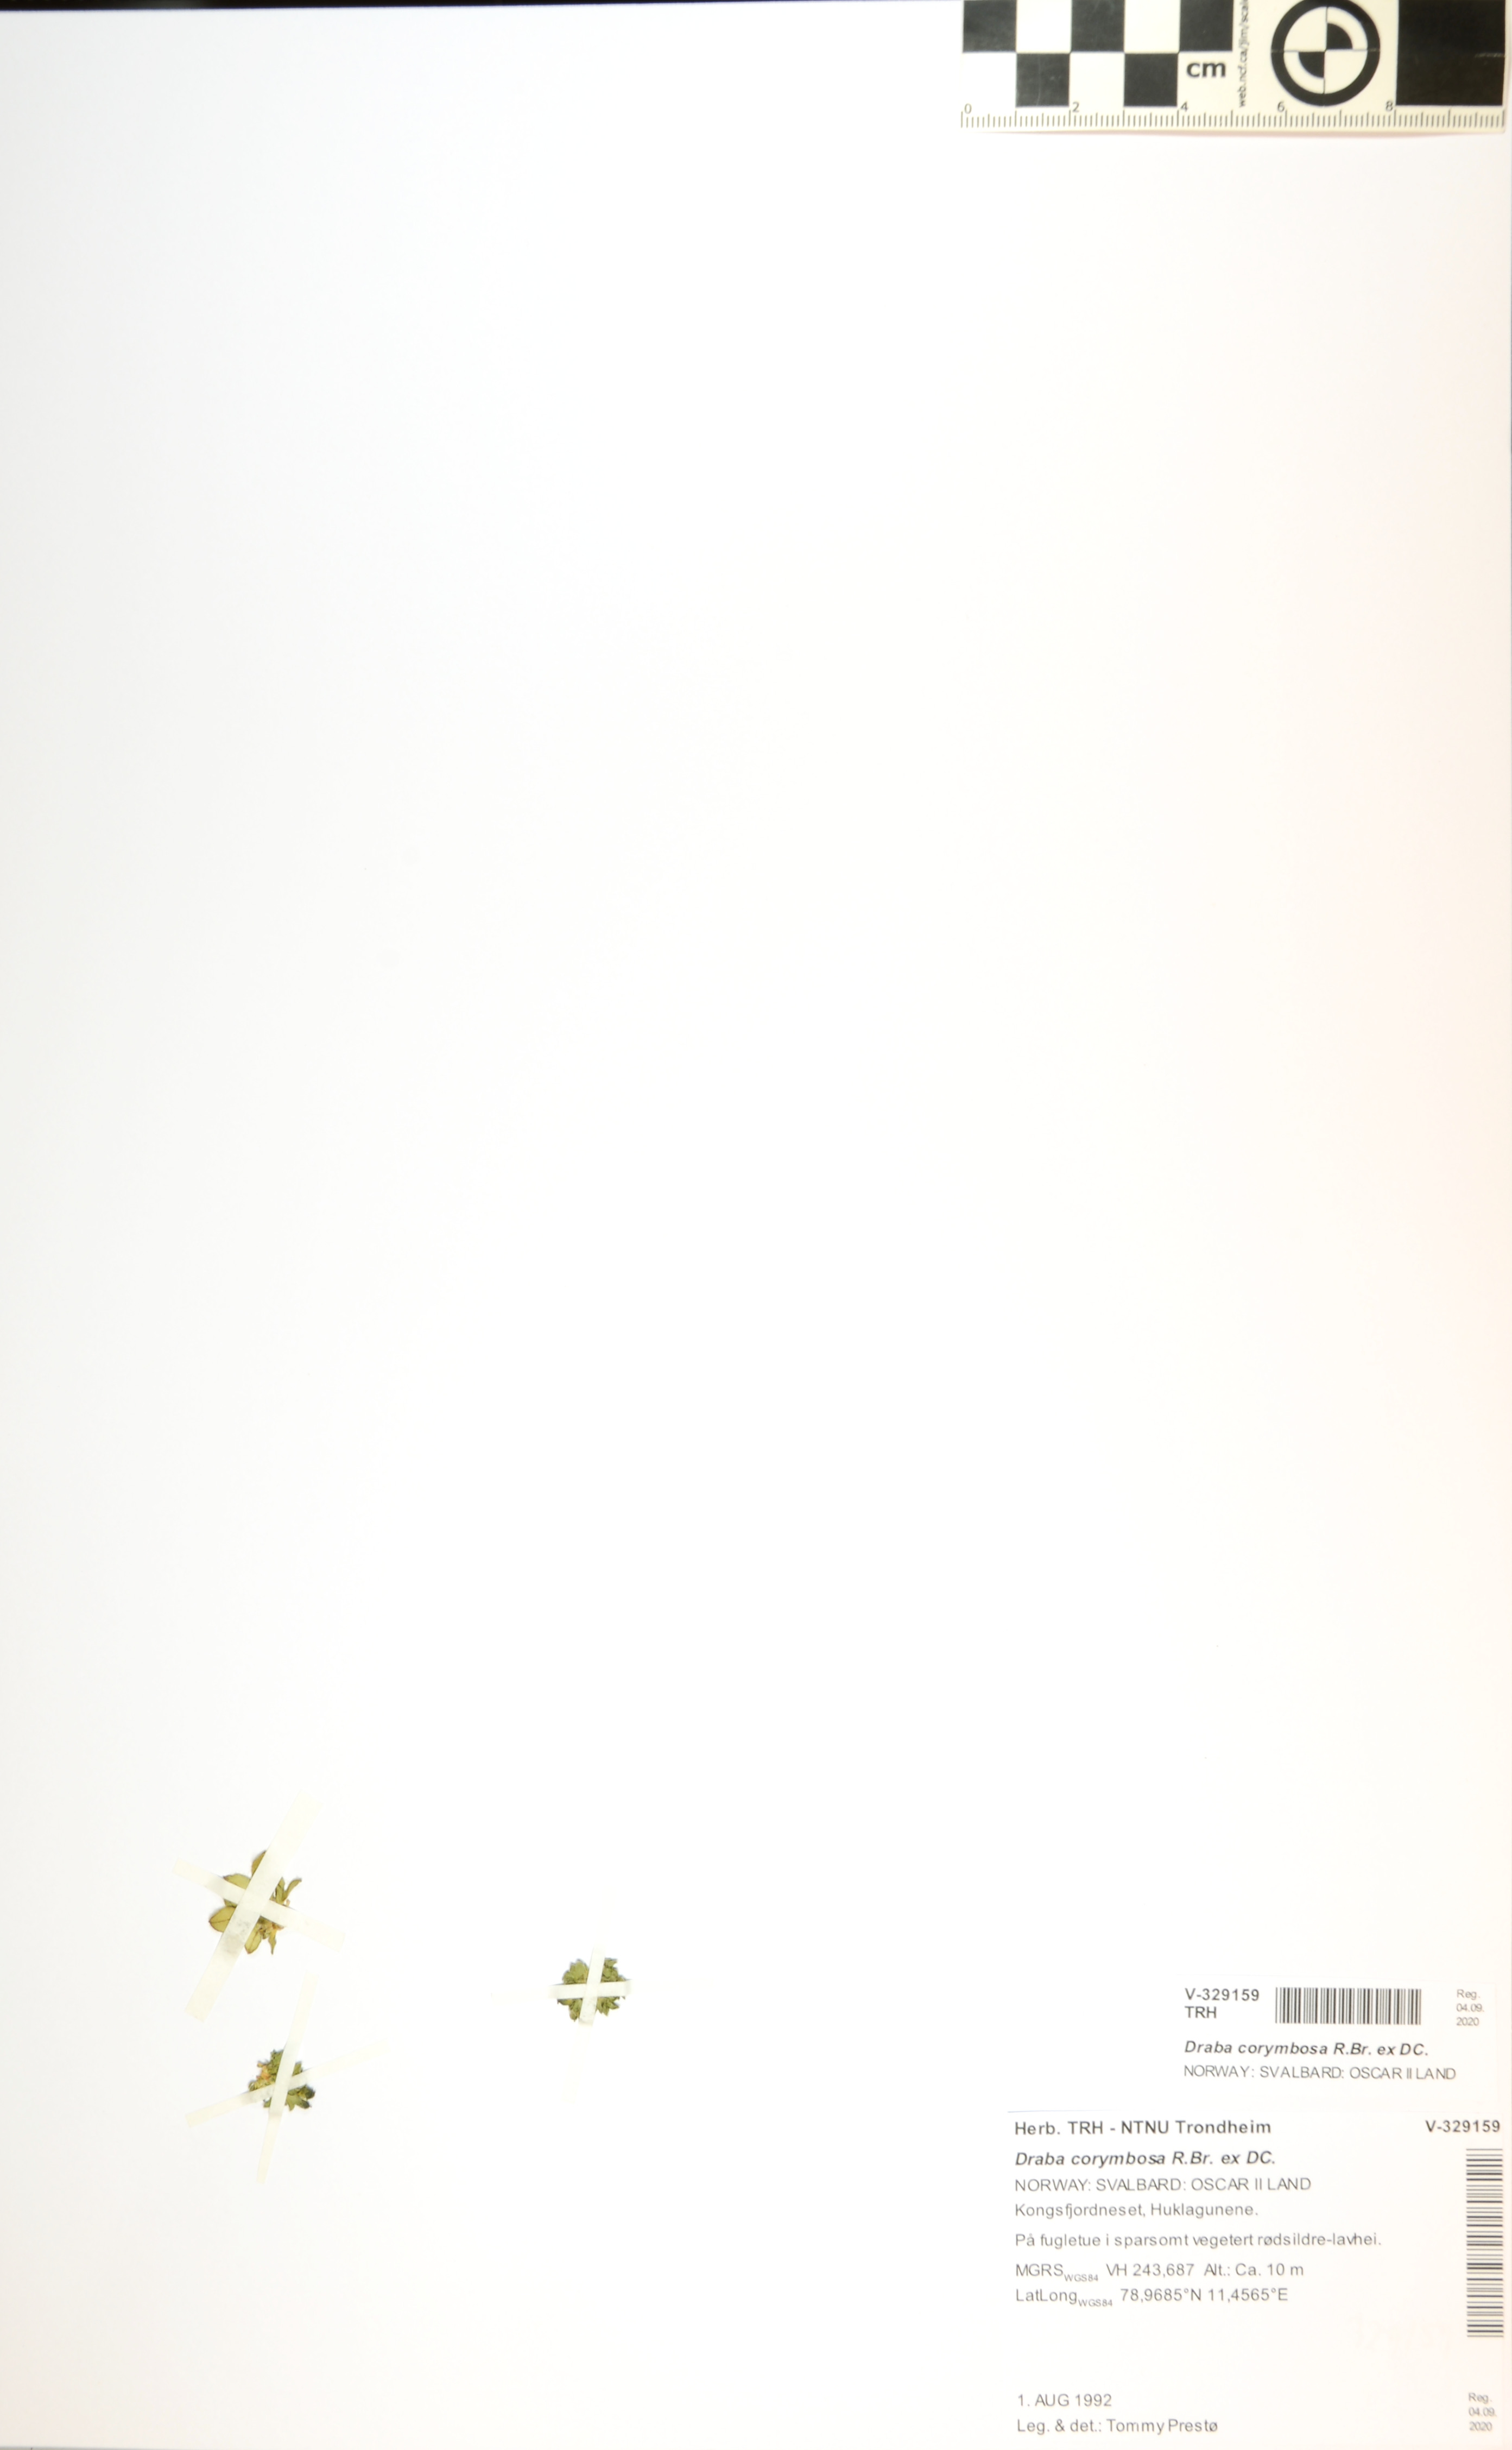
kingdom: Plantae
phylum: Tracheophyta
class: Magnoliopsida
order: Brassicales
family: Brassicaceae
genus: Draba
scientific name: Draba corymbosa
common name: Cushion whitlow-grass
